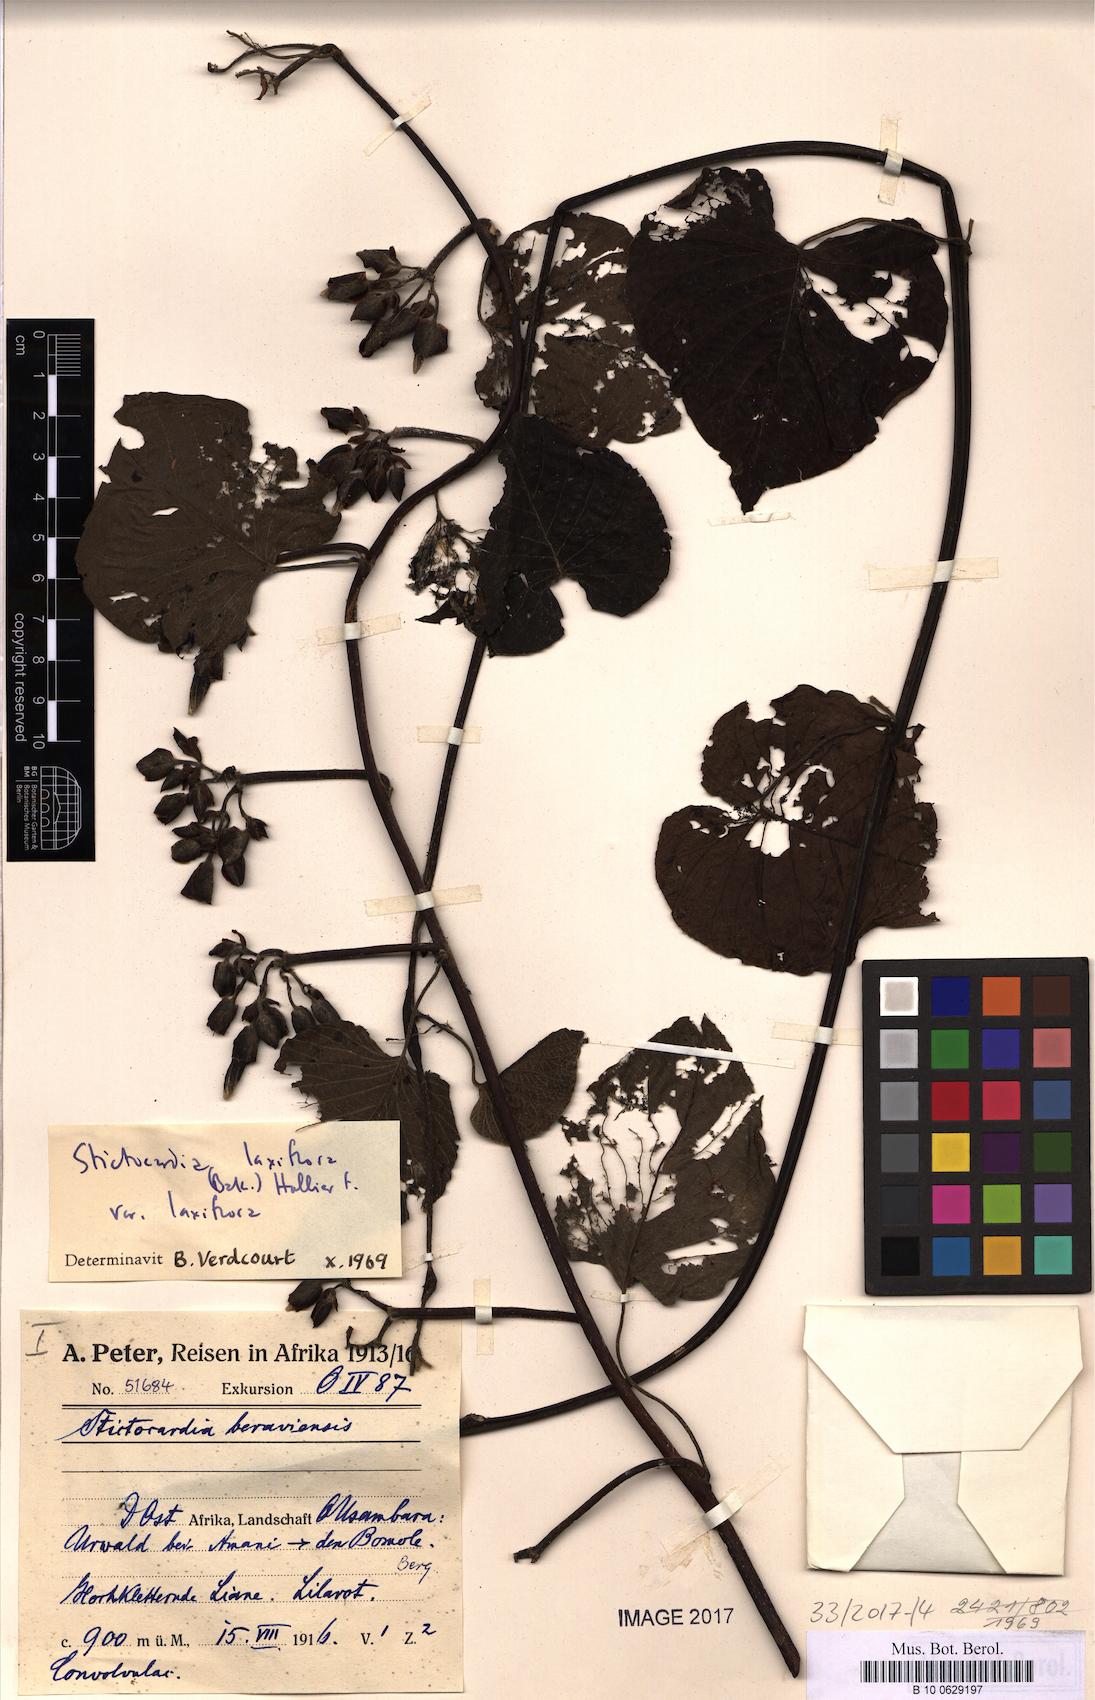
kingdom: Plantae
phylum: Tracheophyta
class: Magnoliopsida
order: Solanales
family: Convolvulaceae
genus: Stictocardia
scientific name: Stictocardia laxiflora
